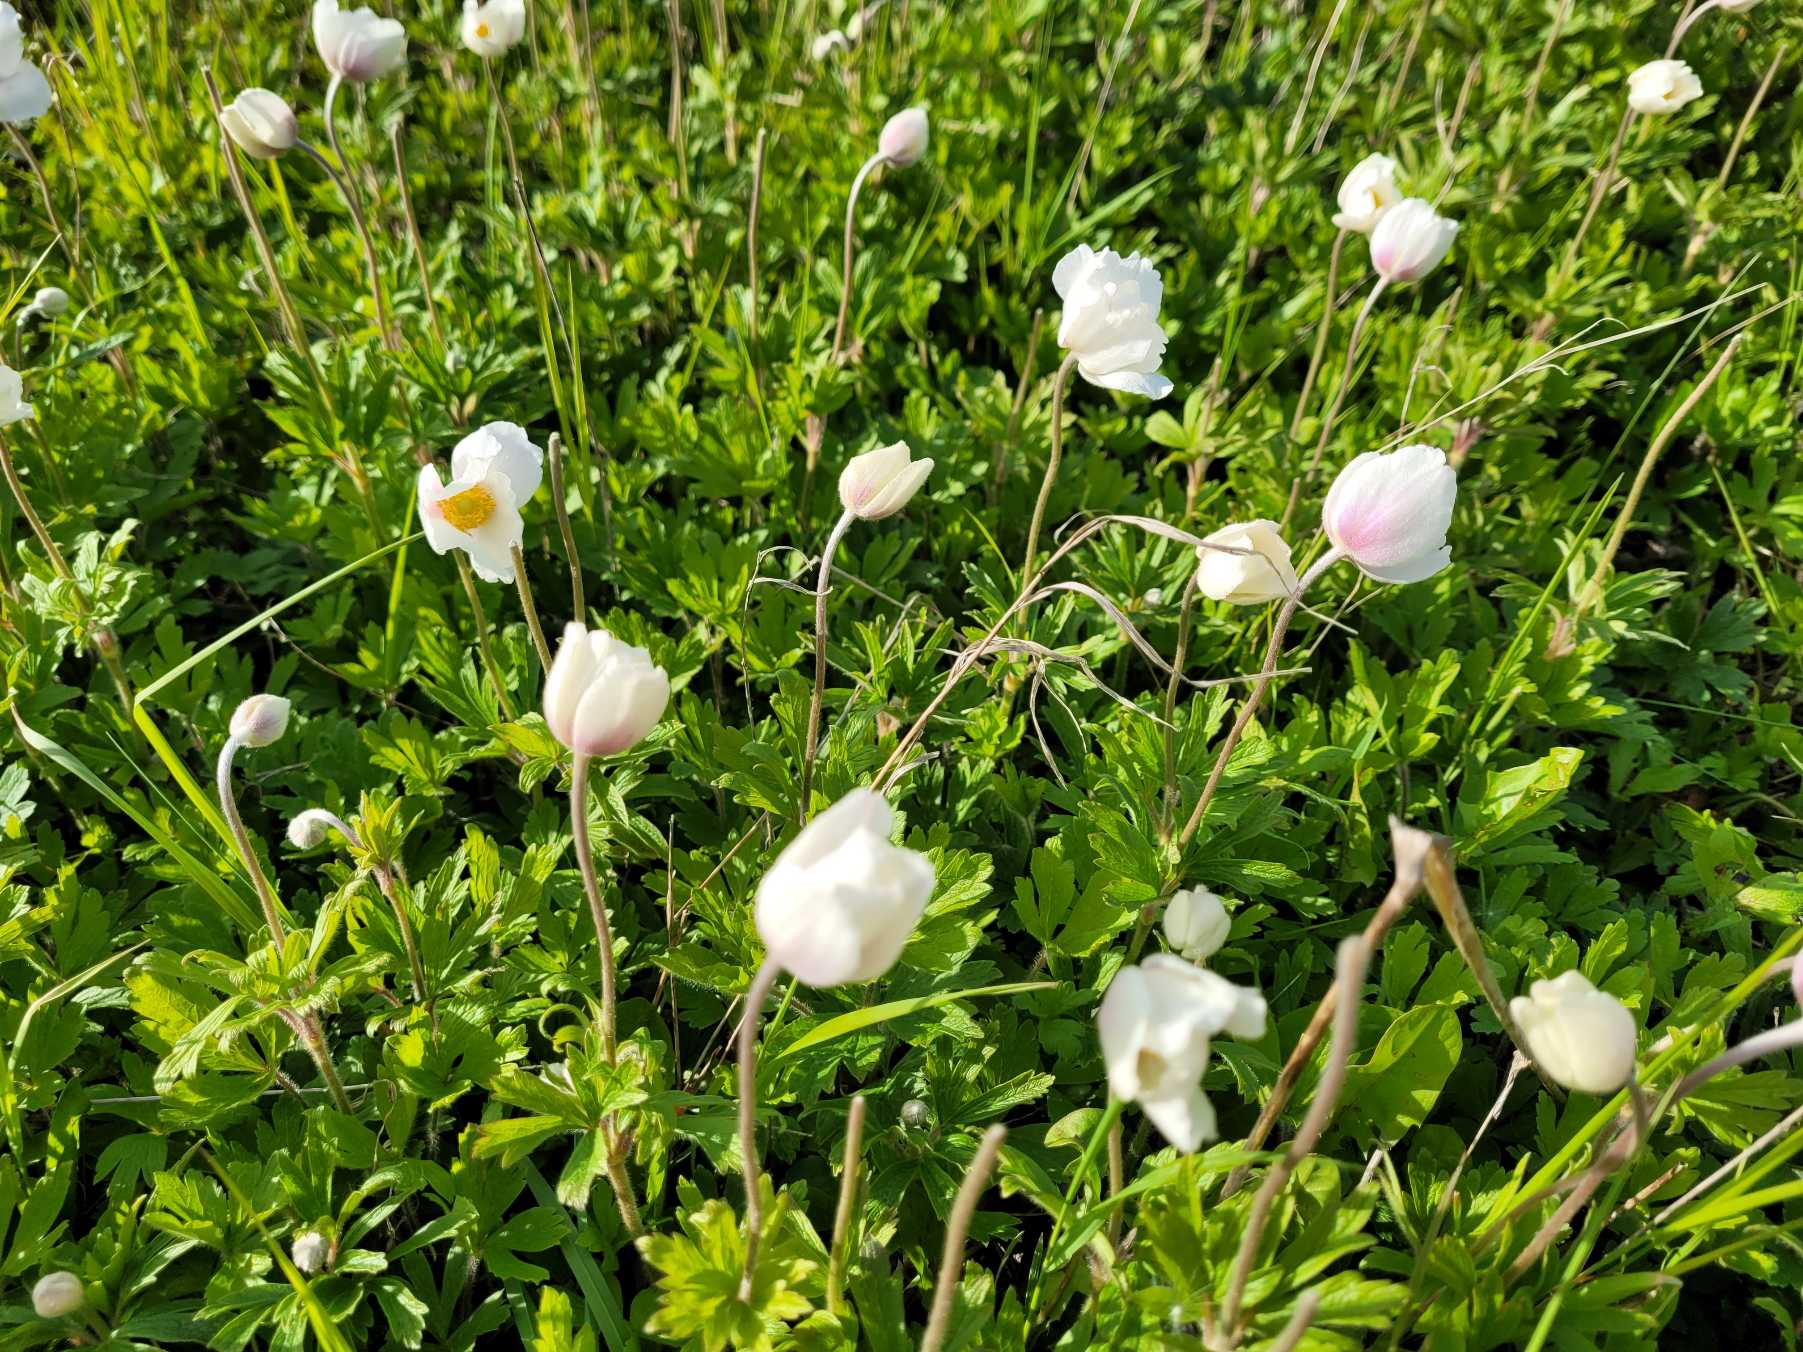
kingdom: Plantae
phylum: Tracheophyta
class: Magnoliopsida
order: Ranunculales
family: Ranunculaceae
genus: Anemone
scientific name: Anemone sylvestris
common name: Sommer-anemone
